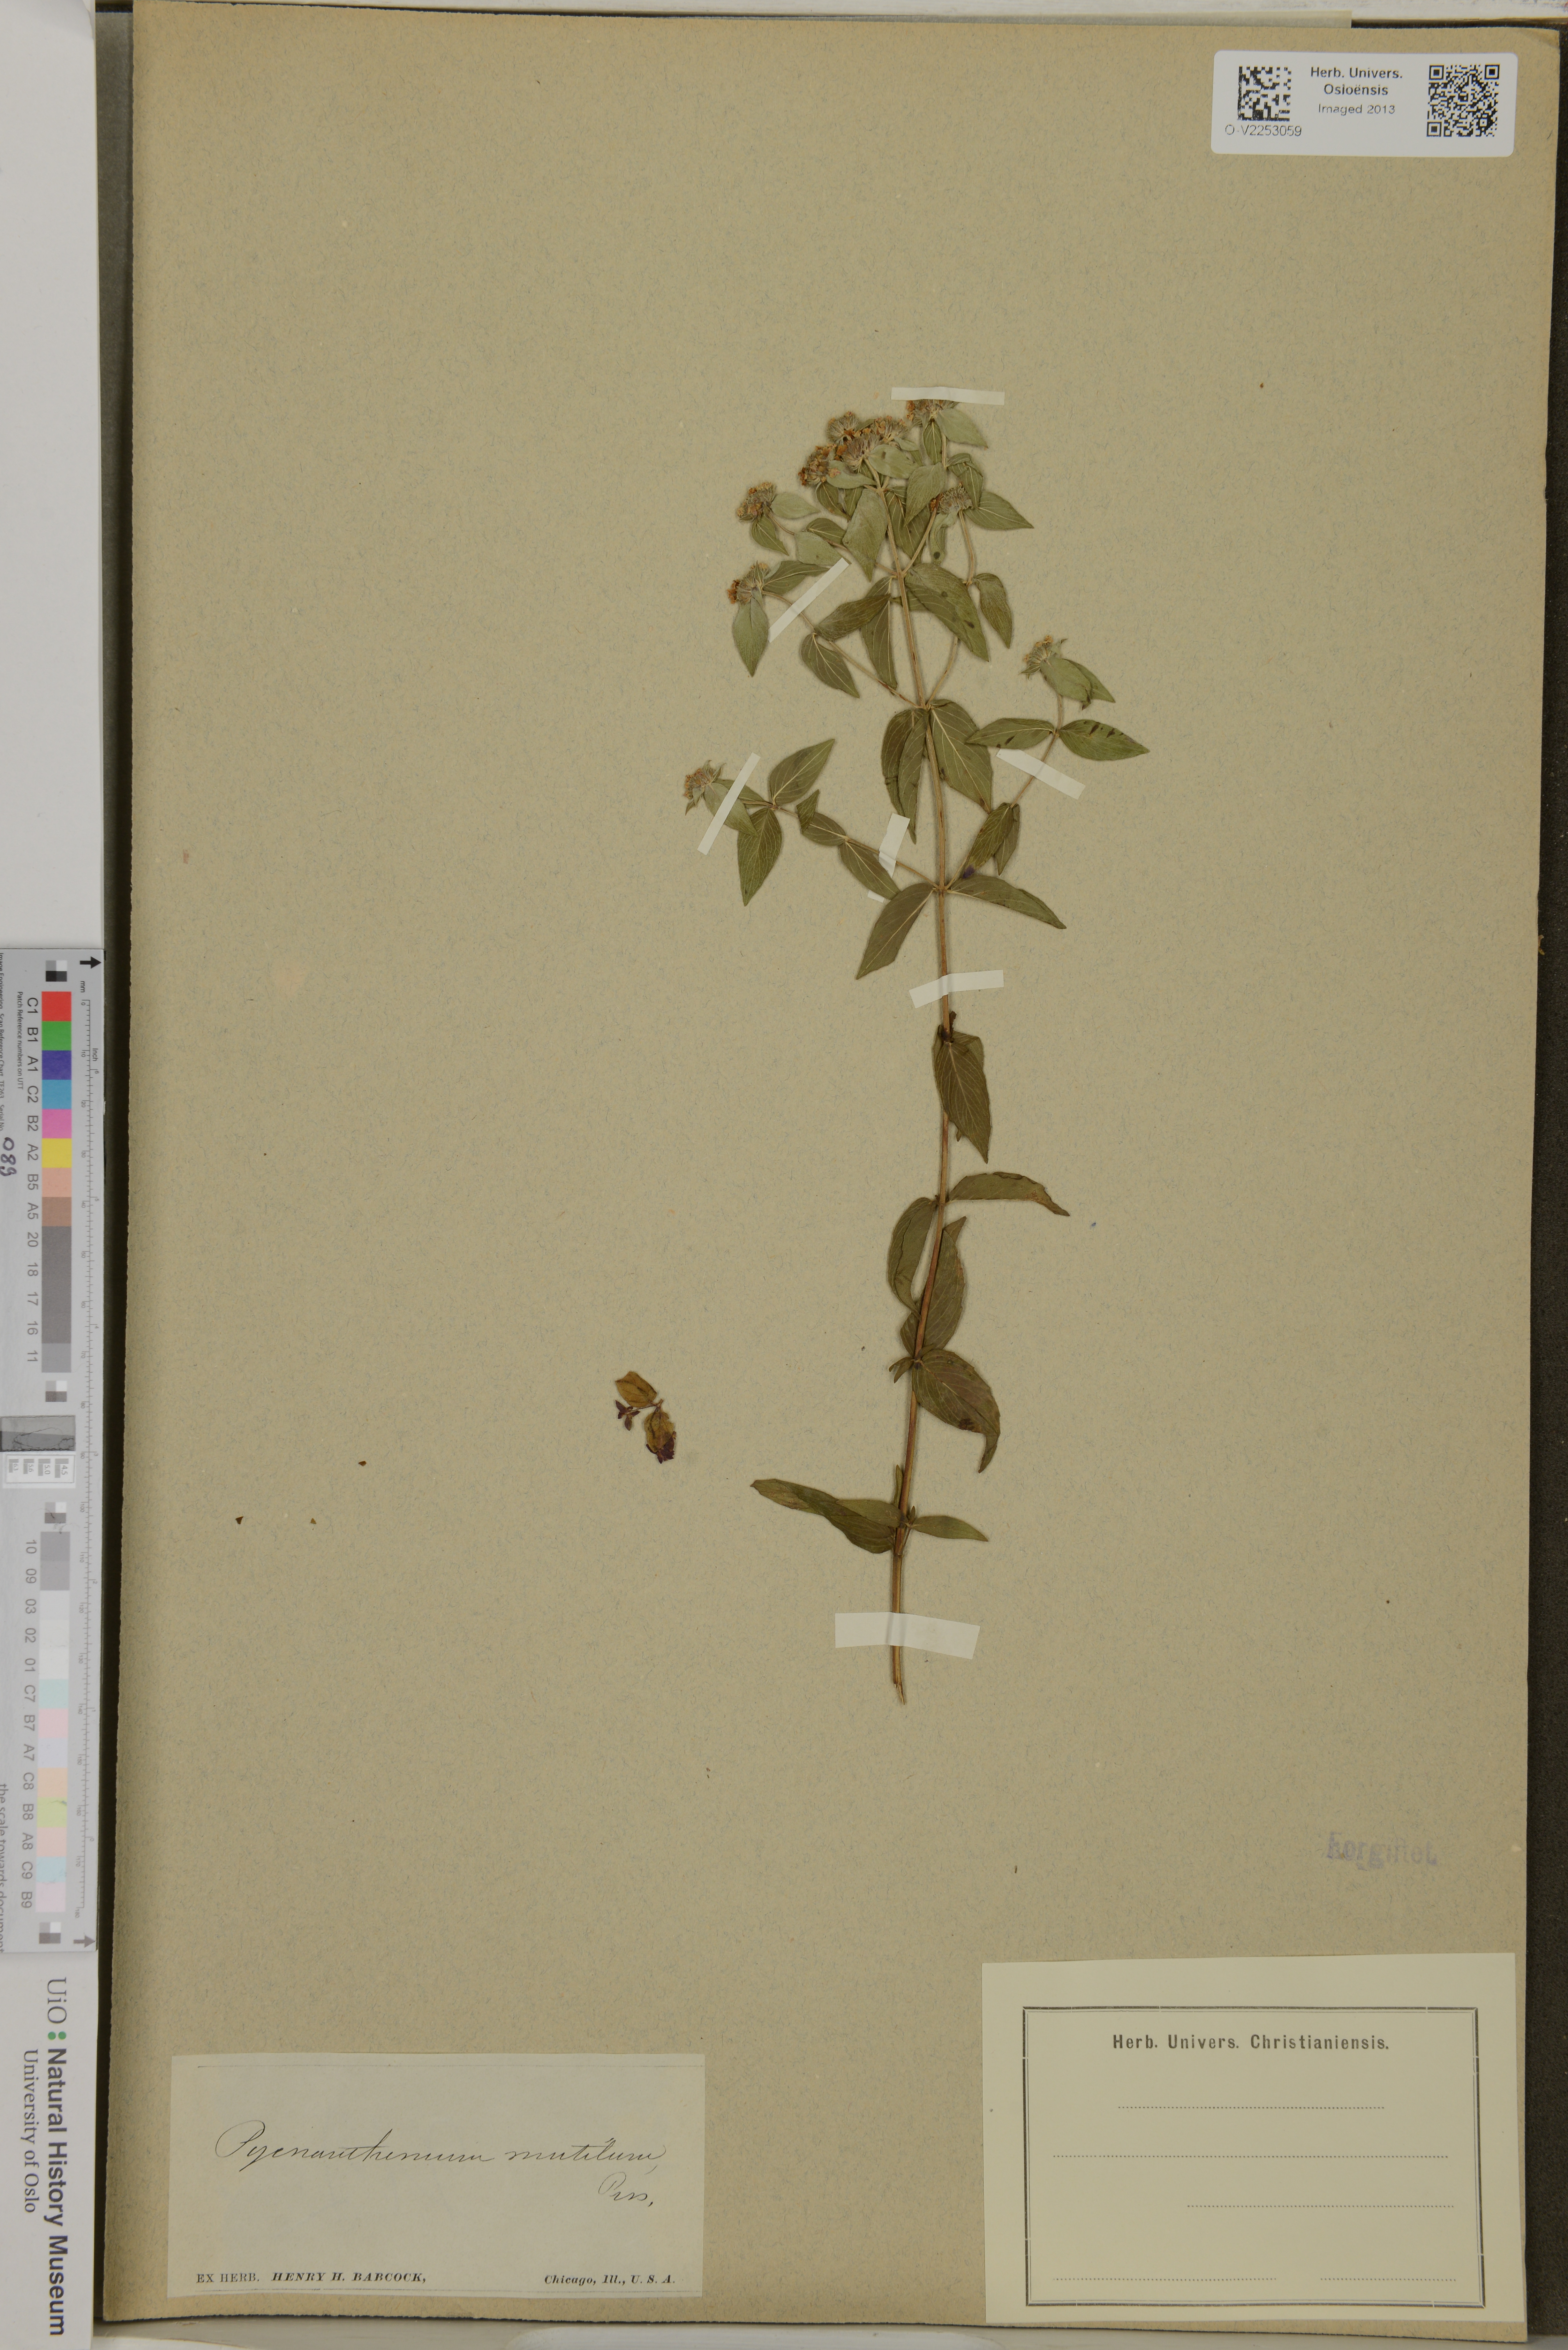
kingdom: Plantae
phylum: Tracheophyta
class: Magnoliopsida
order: Lamiales
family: Lamiaceae
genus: Pycnanthemum
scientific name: Pycnanthemum muticum
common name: Blunt mountain-mint
